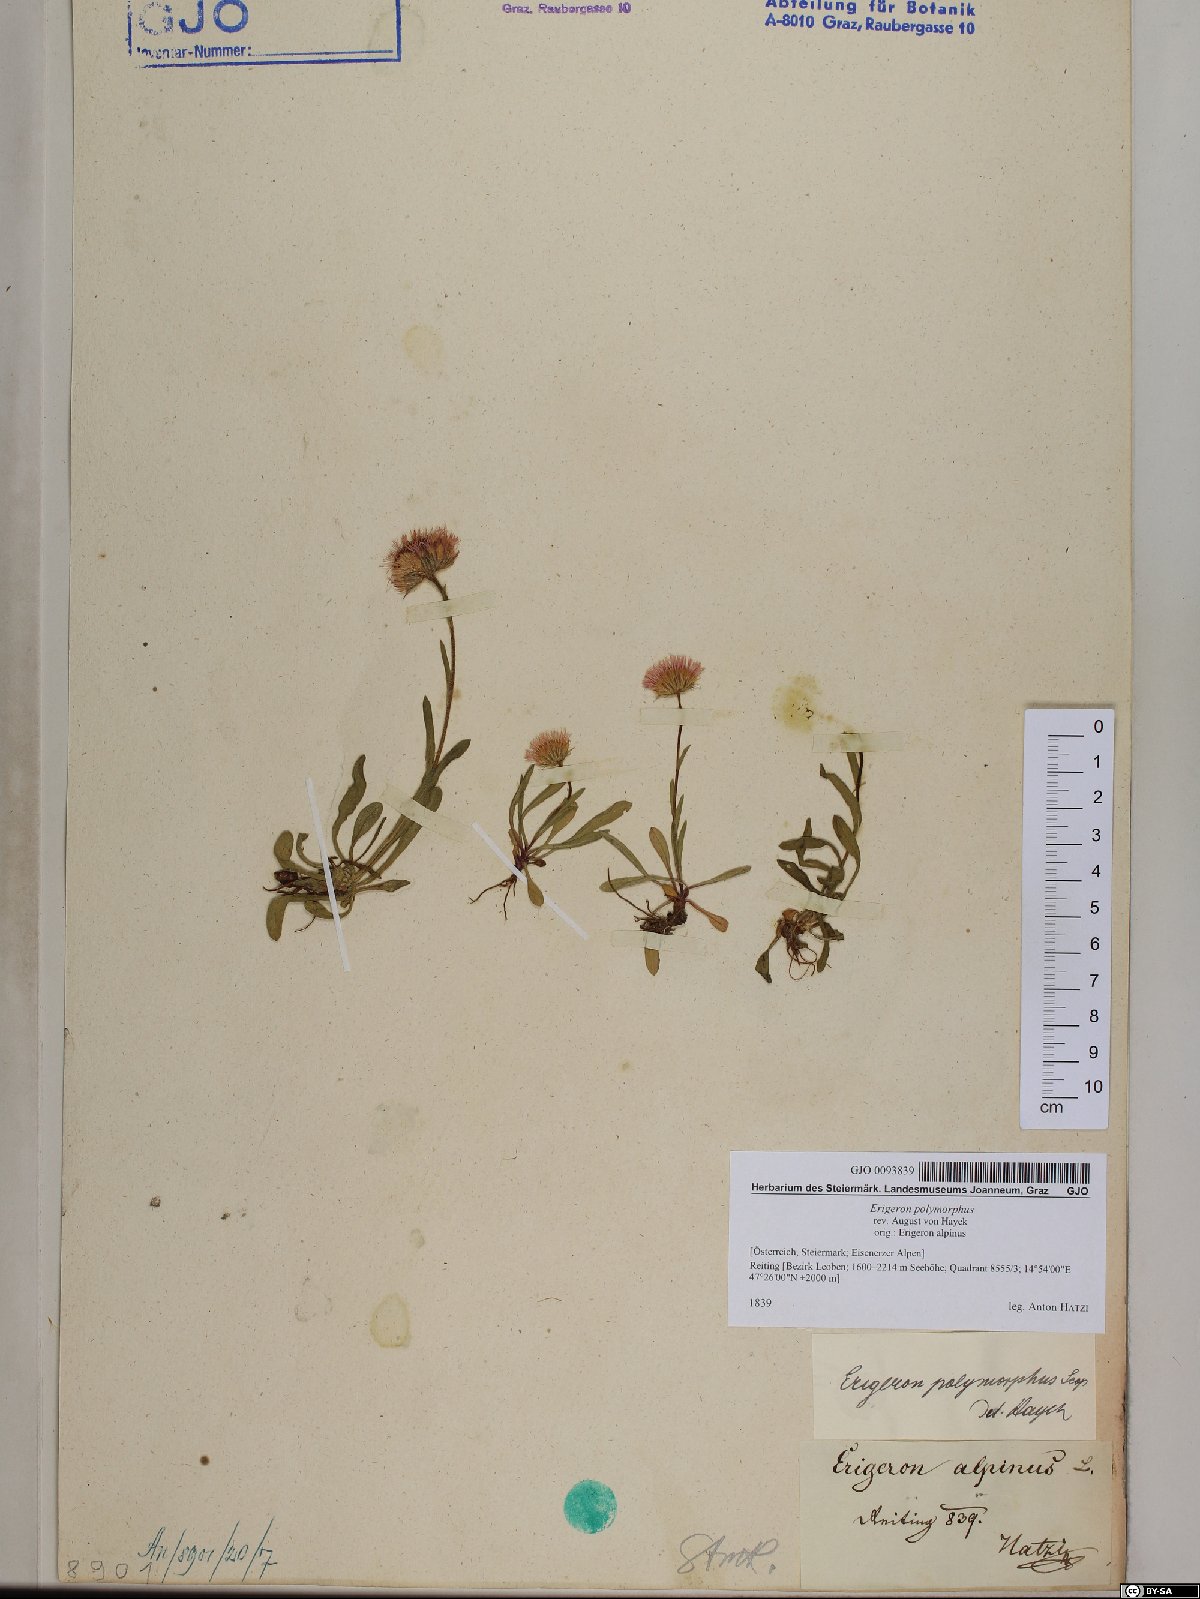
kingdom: Plantae
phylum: Tracheophyta
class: Magnoliopsida
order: Asterales
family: Asteraceae
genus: Erigeron
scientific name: Erigeron alpinus
